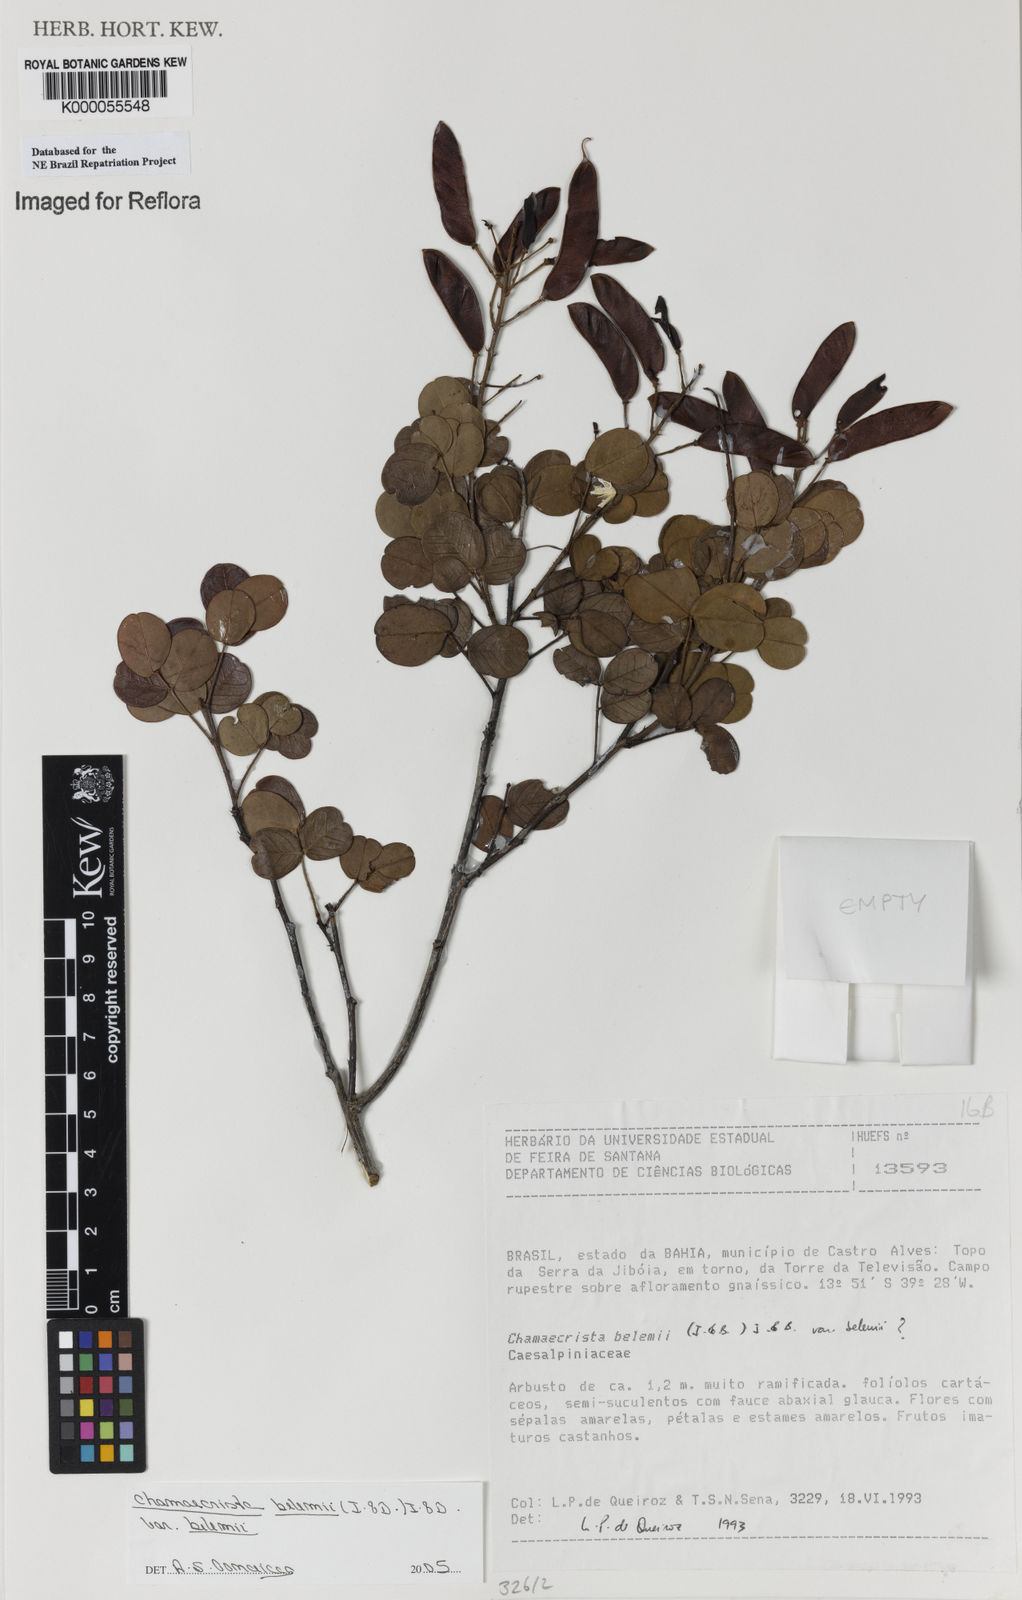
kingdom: Plantae
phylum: Tracheophyta
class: Magnoliopsida
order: Fabales
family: Fabaceae
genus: Chamaecrista
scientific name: Chamaecrista belemii
